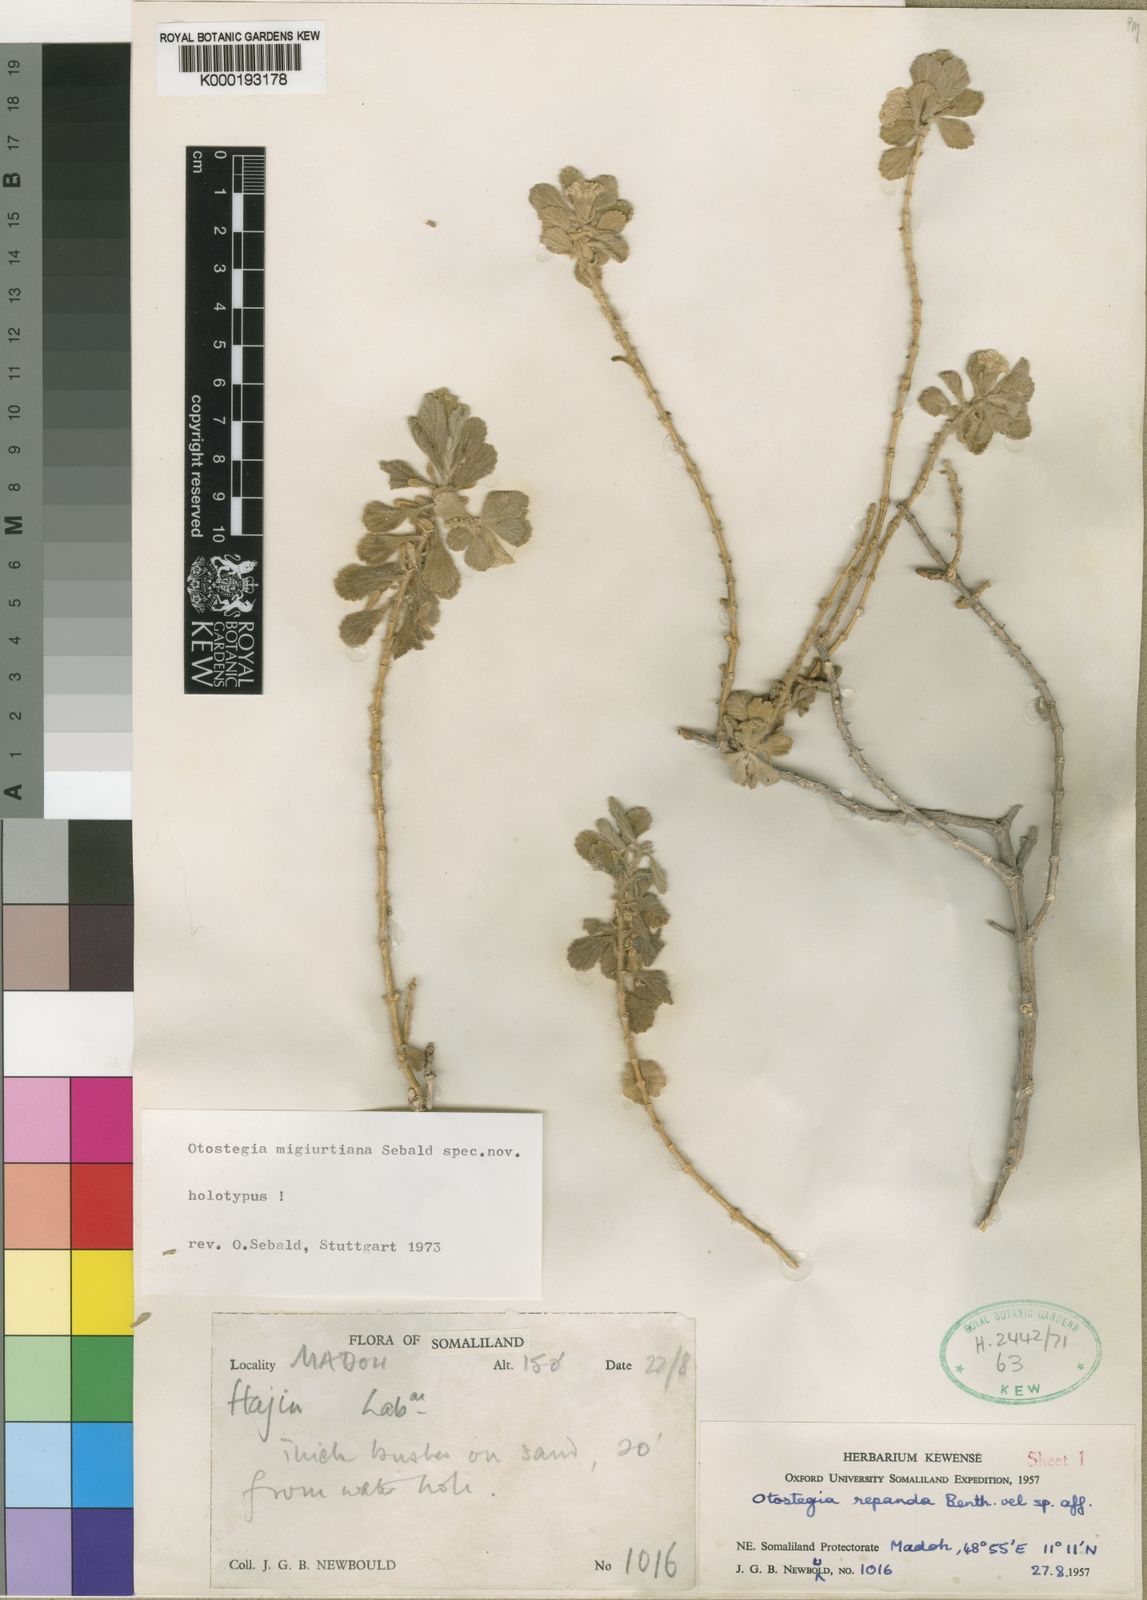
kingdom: Plantae
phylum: Tracheophyta
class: Magnoliopsida
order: Lamiales
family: Lamiaceae
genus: Otostegia
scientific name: Otostegia migiurtiana
